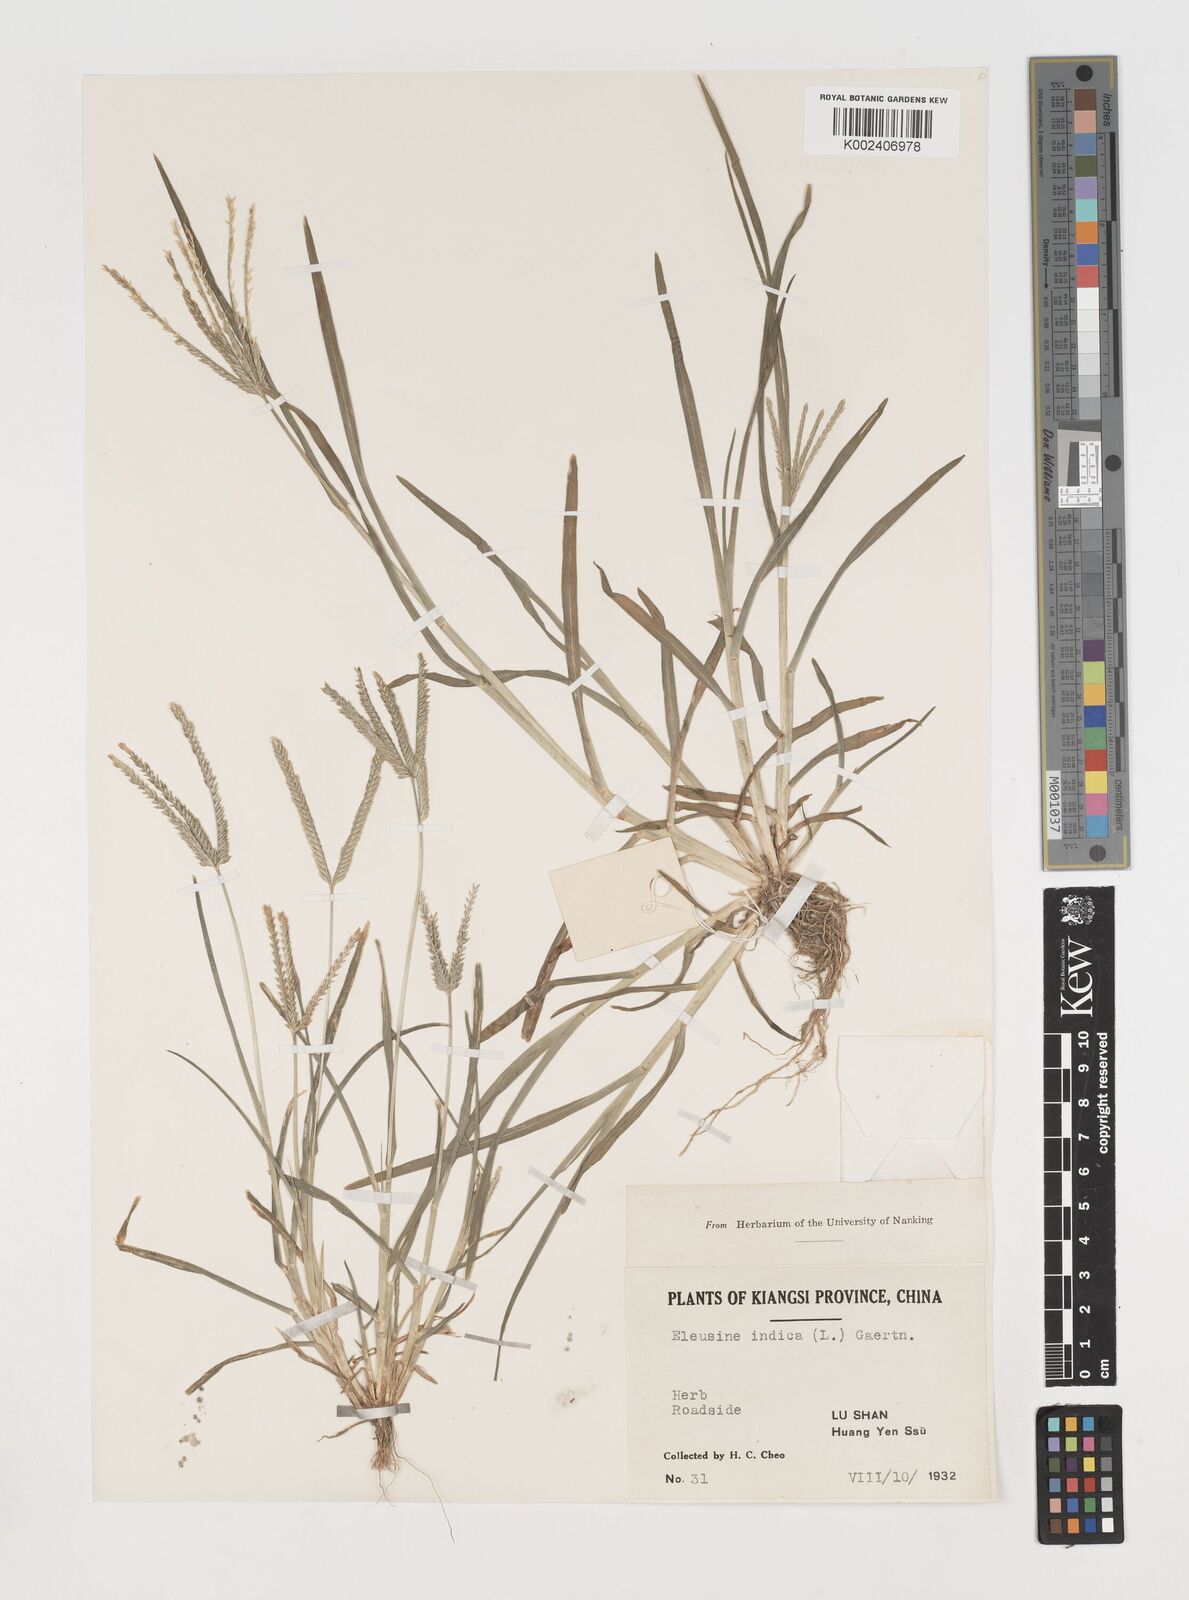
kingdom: Plantae
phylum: Tracheophyta
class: Liliopsida
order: Poales
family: Poaceae
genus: Eleusine
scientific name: Eleusine indica
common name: Yard-grass
